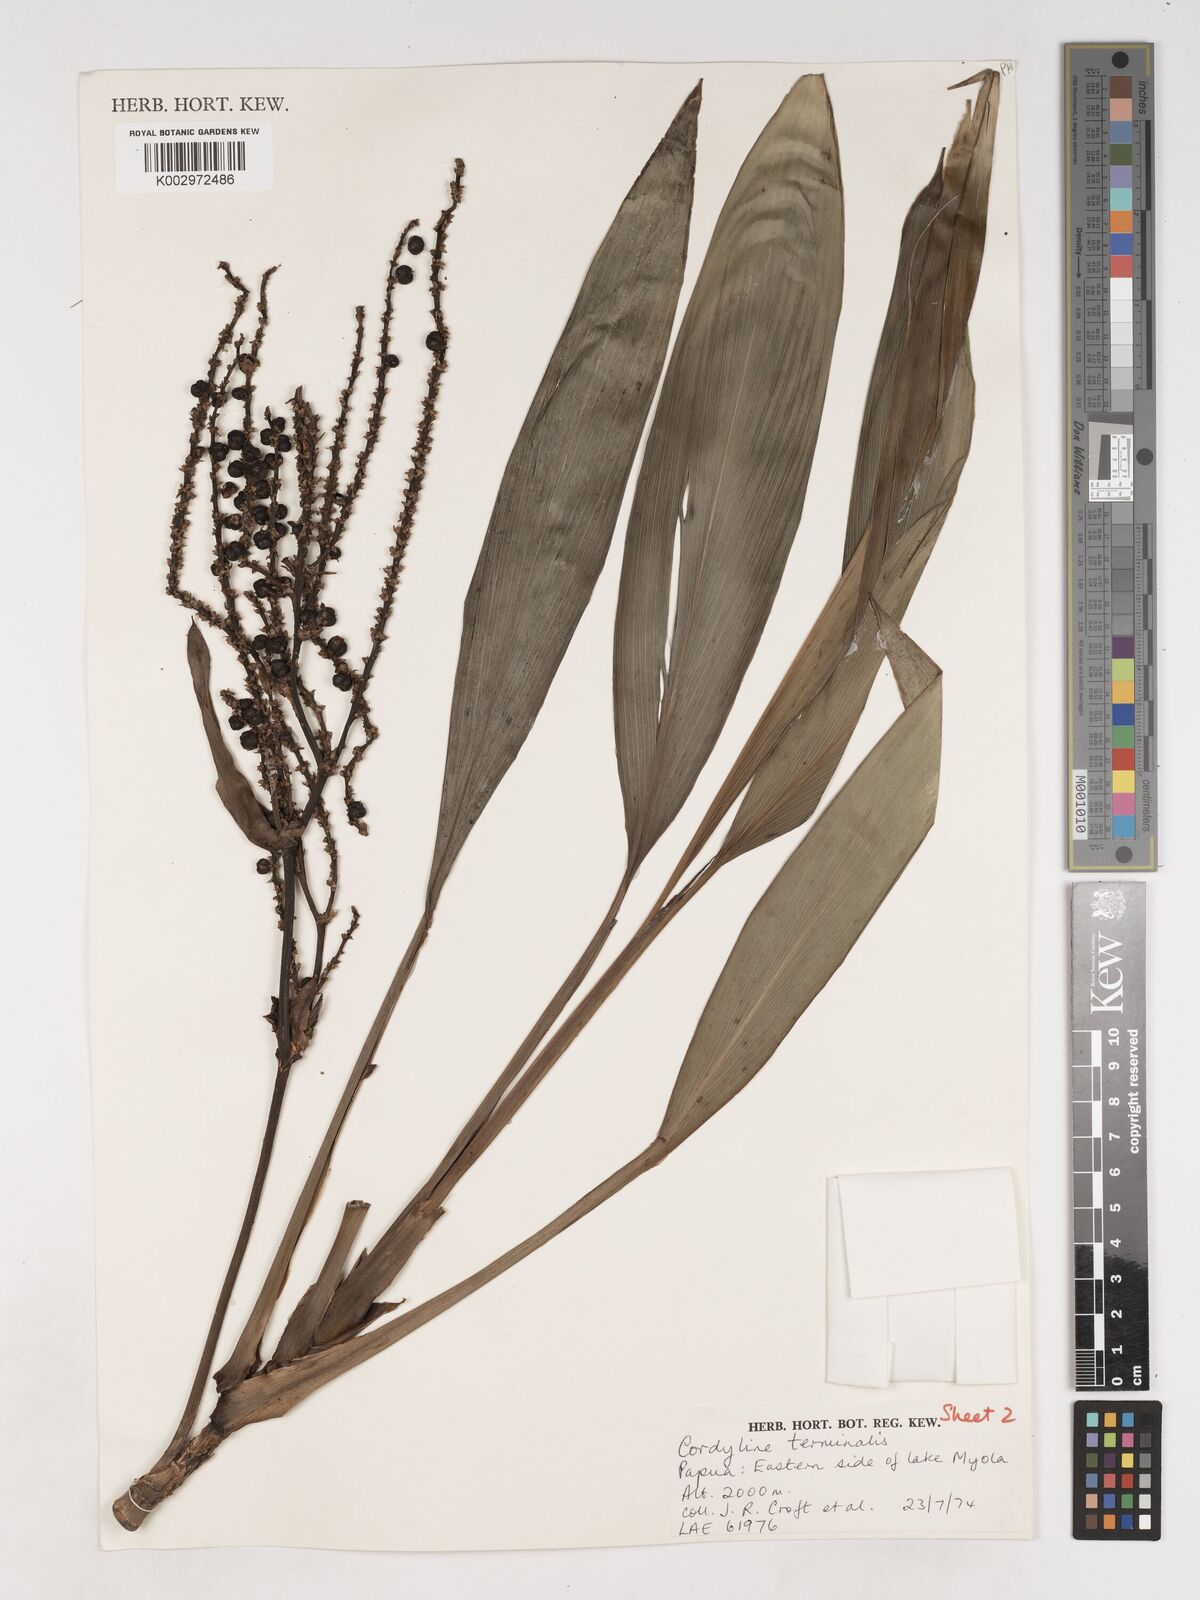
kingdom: Plantae
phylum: Tracheophyta
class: Liliopsida
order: Asparagales
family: Asparagaceae
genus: Cordyline
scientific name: Cordyline fruticosa
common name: Good-luck-plant
